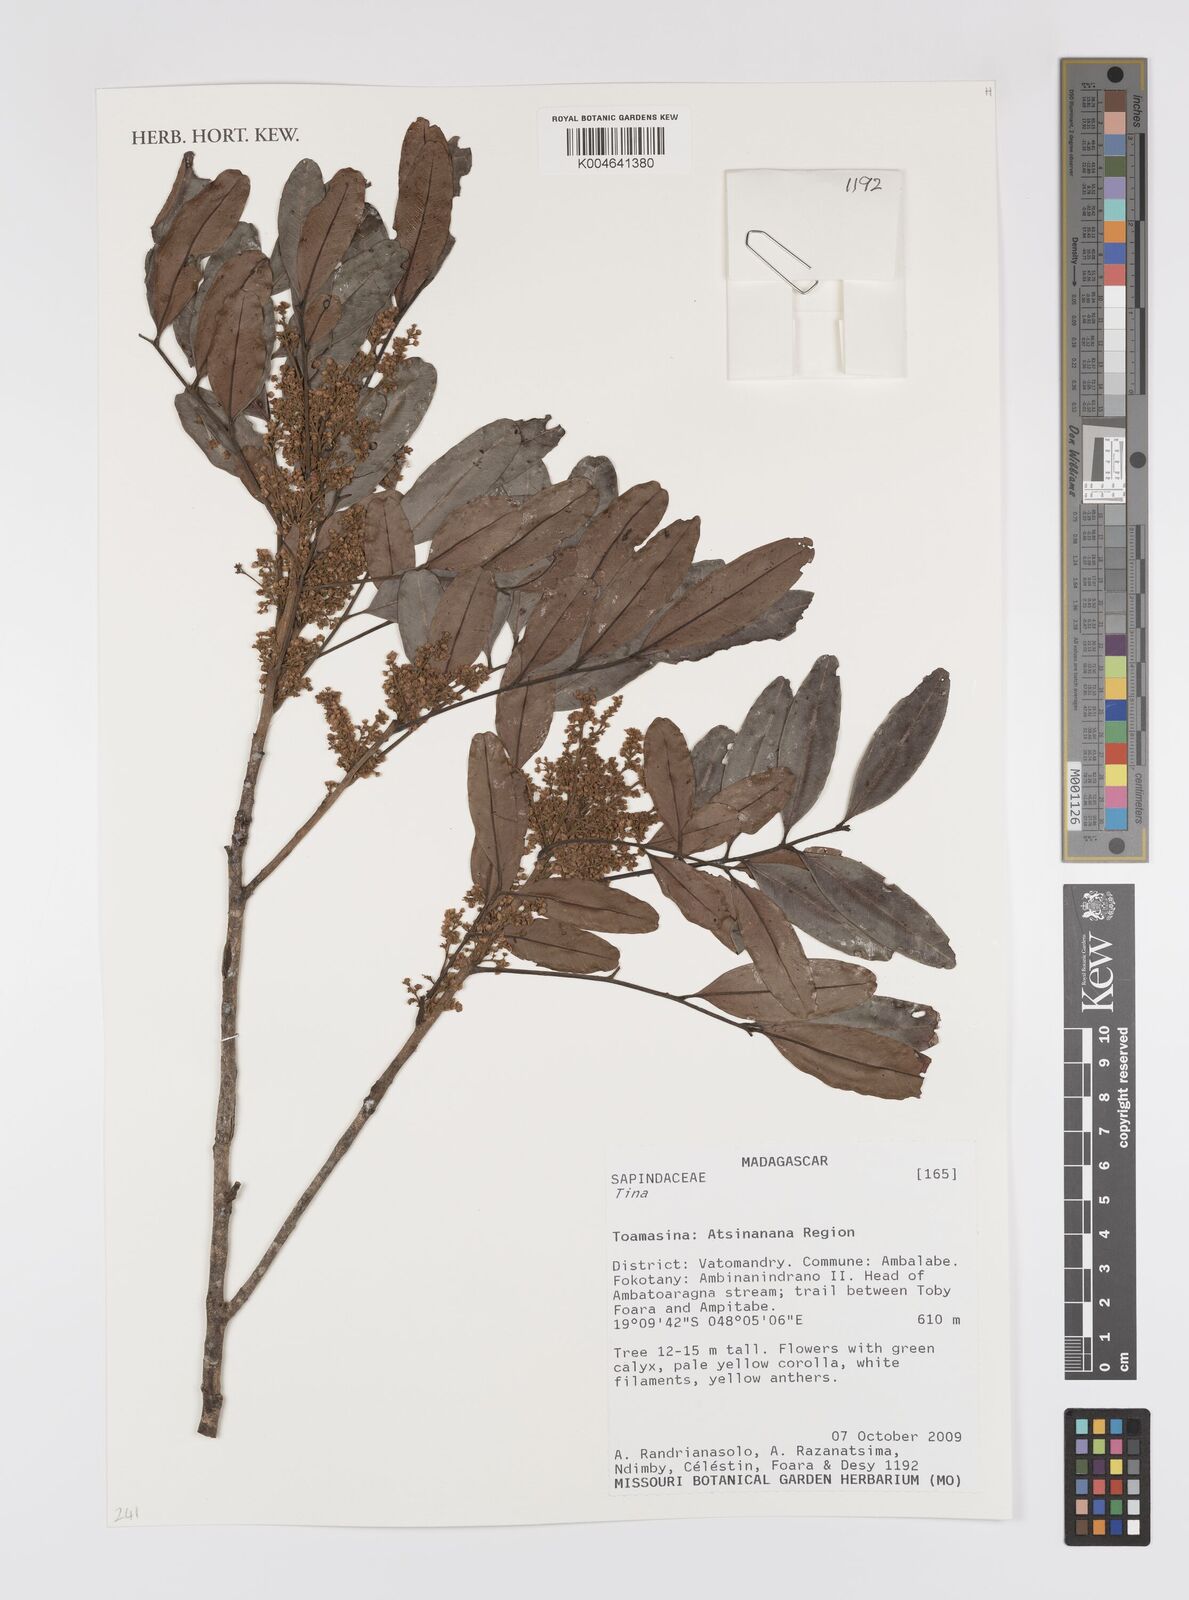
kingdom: Plantae
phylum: Tracheophyta
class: Magnoliopsida
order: Sapindales
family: Sapindaceae
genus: Tina
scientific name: Tina
